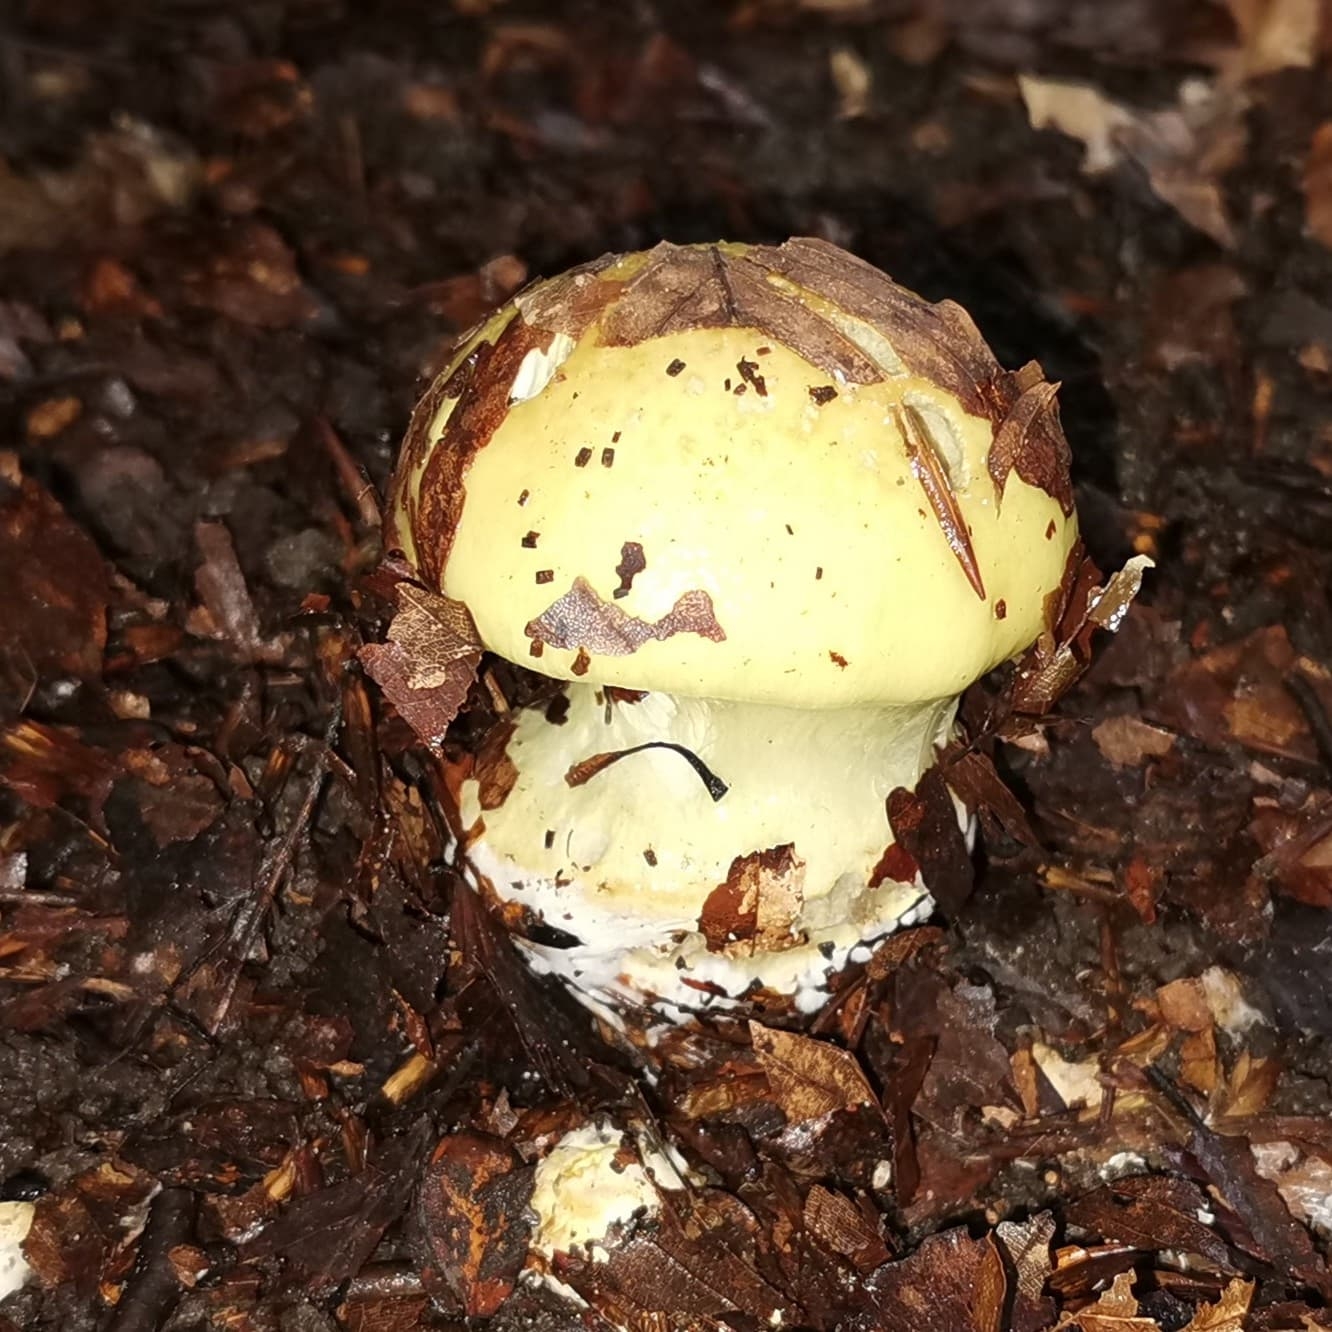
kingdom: Fungi
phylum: Basidiomycota
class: Agaricomycetes
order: Agaricales
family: Cortinariaceae
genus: Cortinarius
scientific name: Cortinarius
